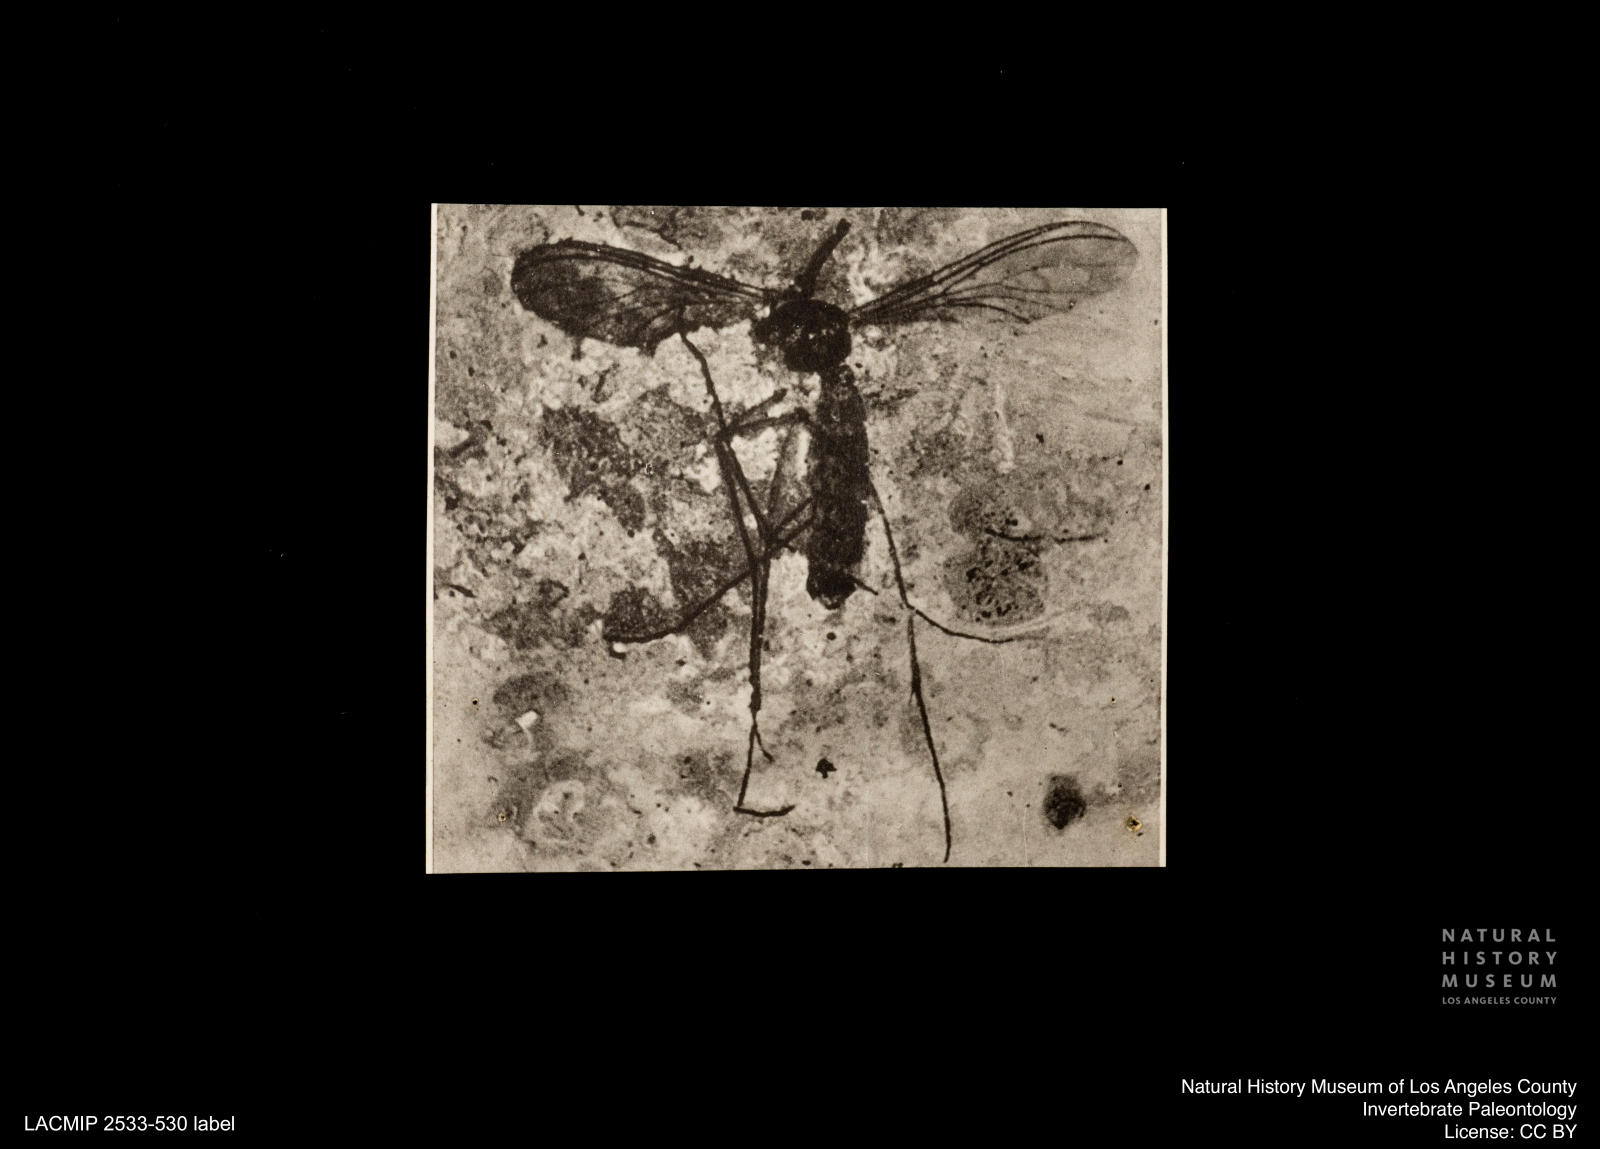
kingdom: Animalia
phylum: Arthropoda
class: Insecta
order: Diptera
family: Mycetophilidae
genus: Mycomya
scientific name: Mycomya reisingeri
